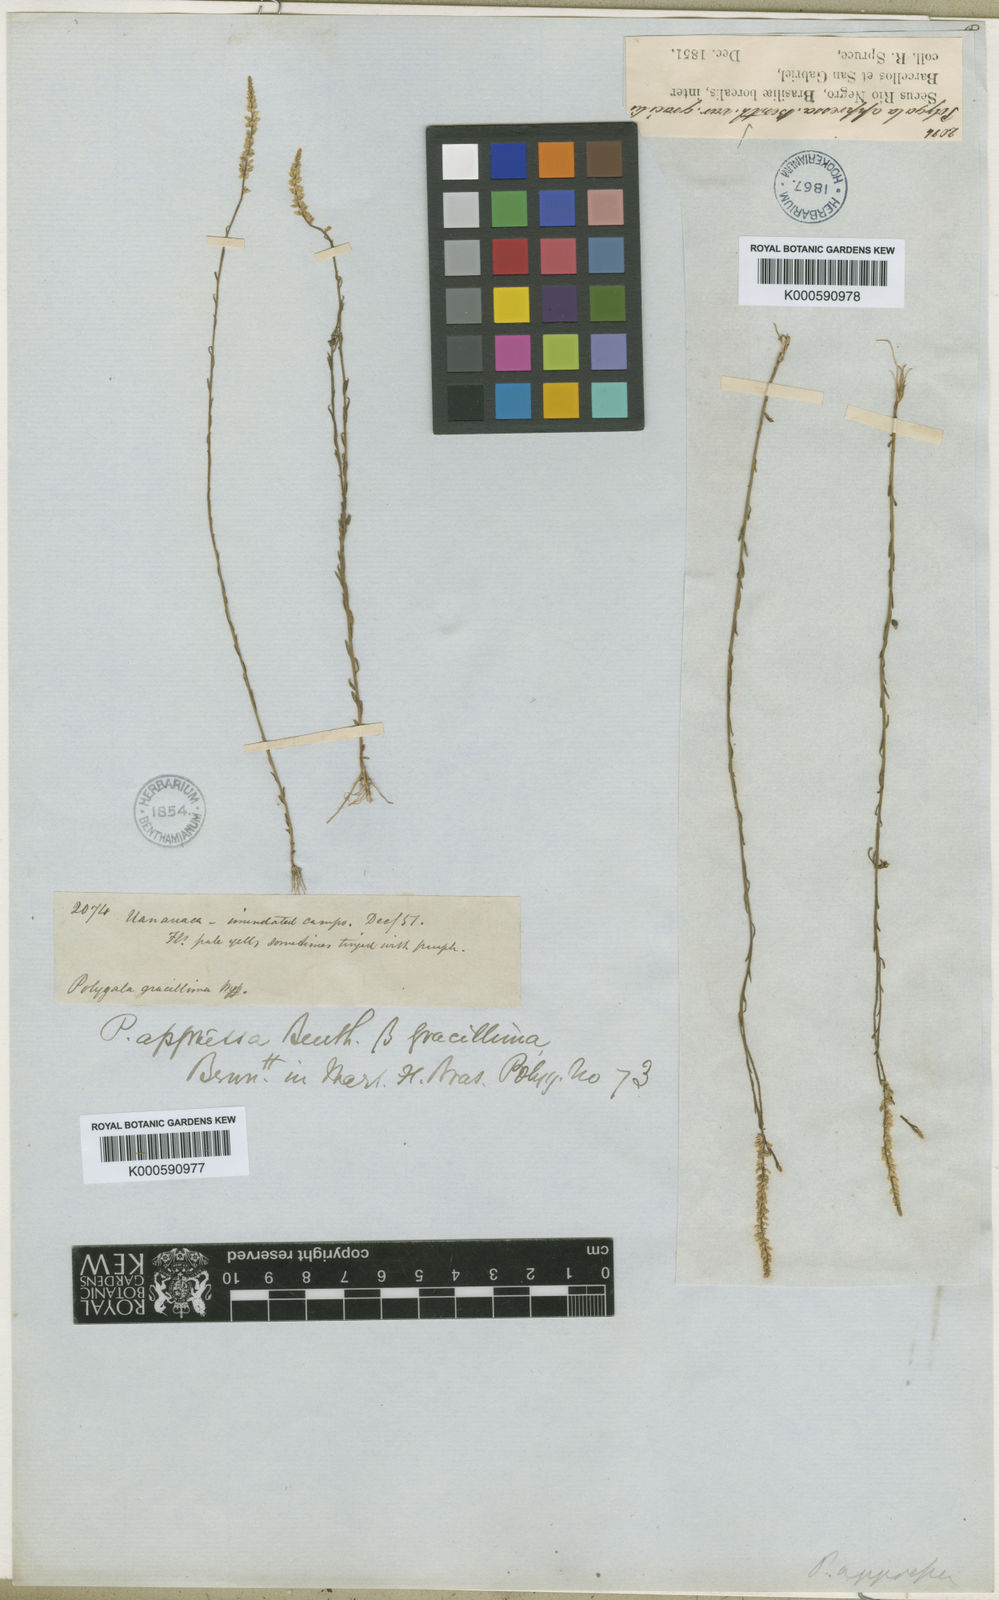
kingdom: Plantae
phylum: Tracheophyta
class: Magnoliopsida
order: Fabales
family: Polygalaceae
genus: Polygala
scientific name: Polygala appressa
